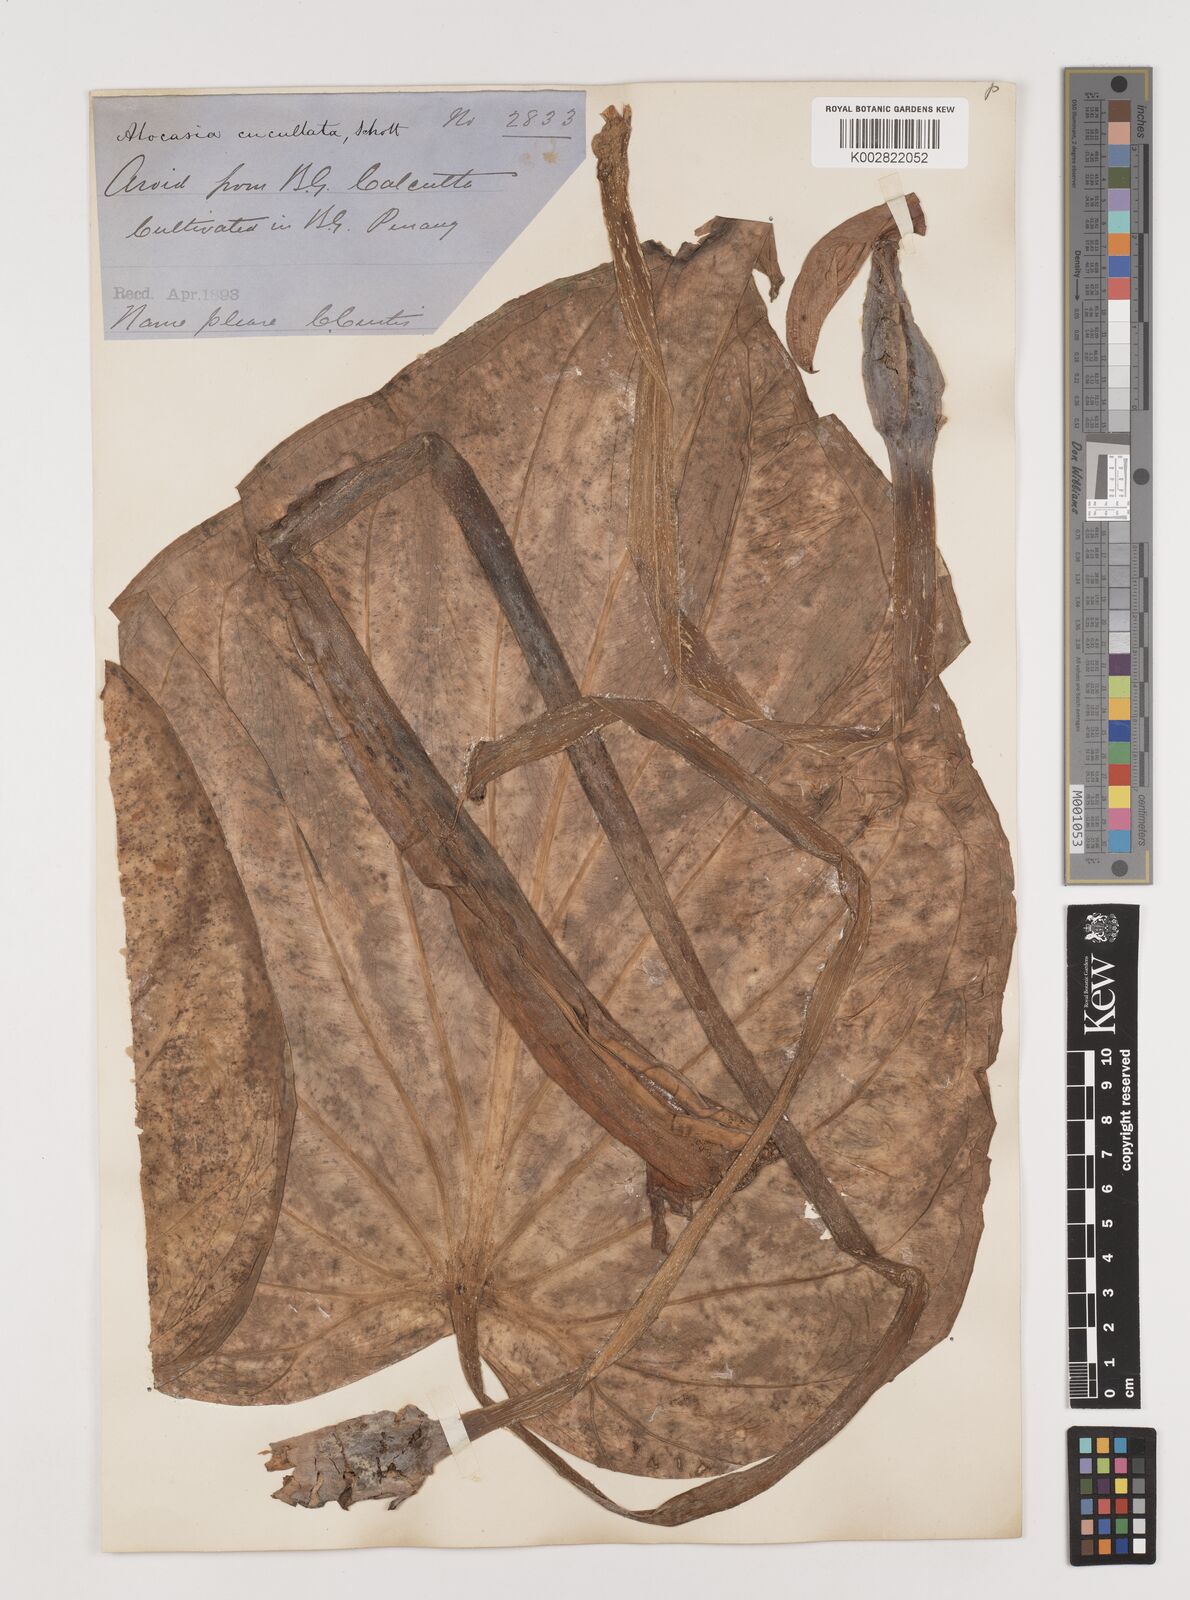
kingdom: Plantae
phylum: Tracheophyta
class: Liliopsida
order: Alismatales
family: Araceae
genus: Alocasia
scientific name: Alocasia cucullata
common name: Buddha's hand
